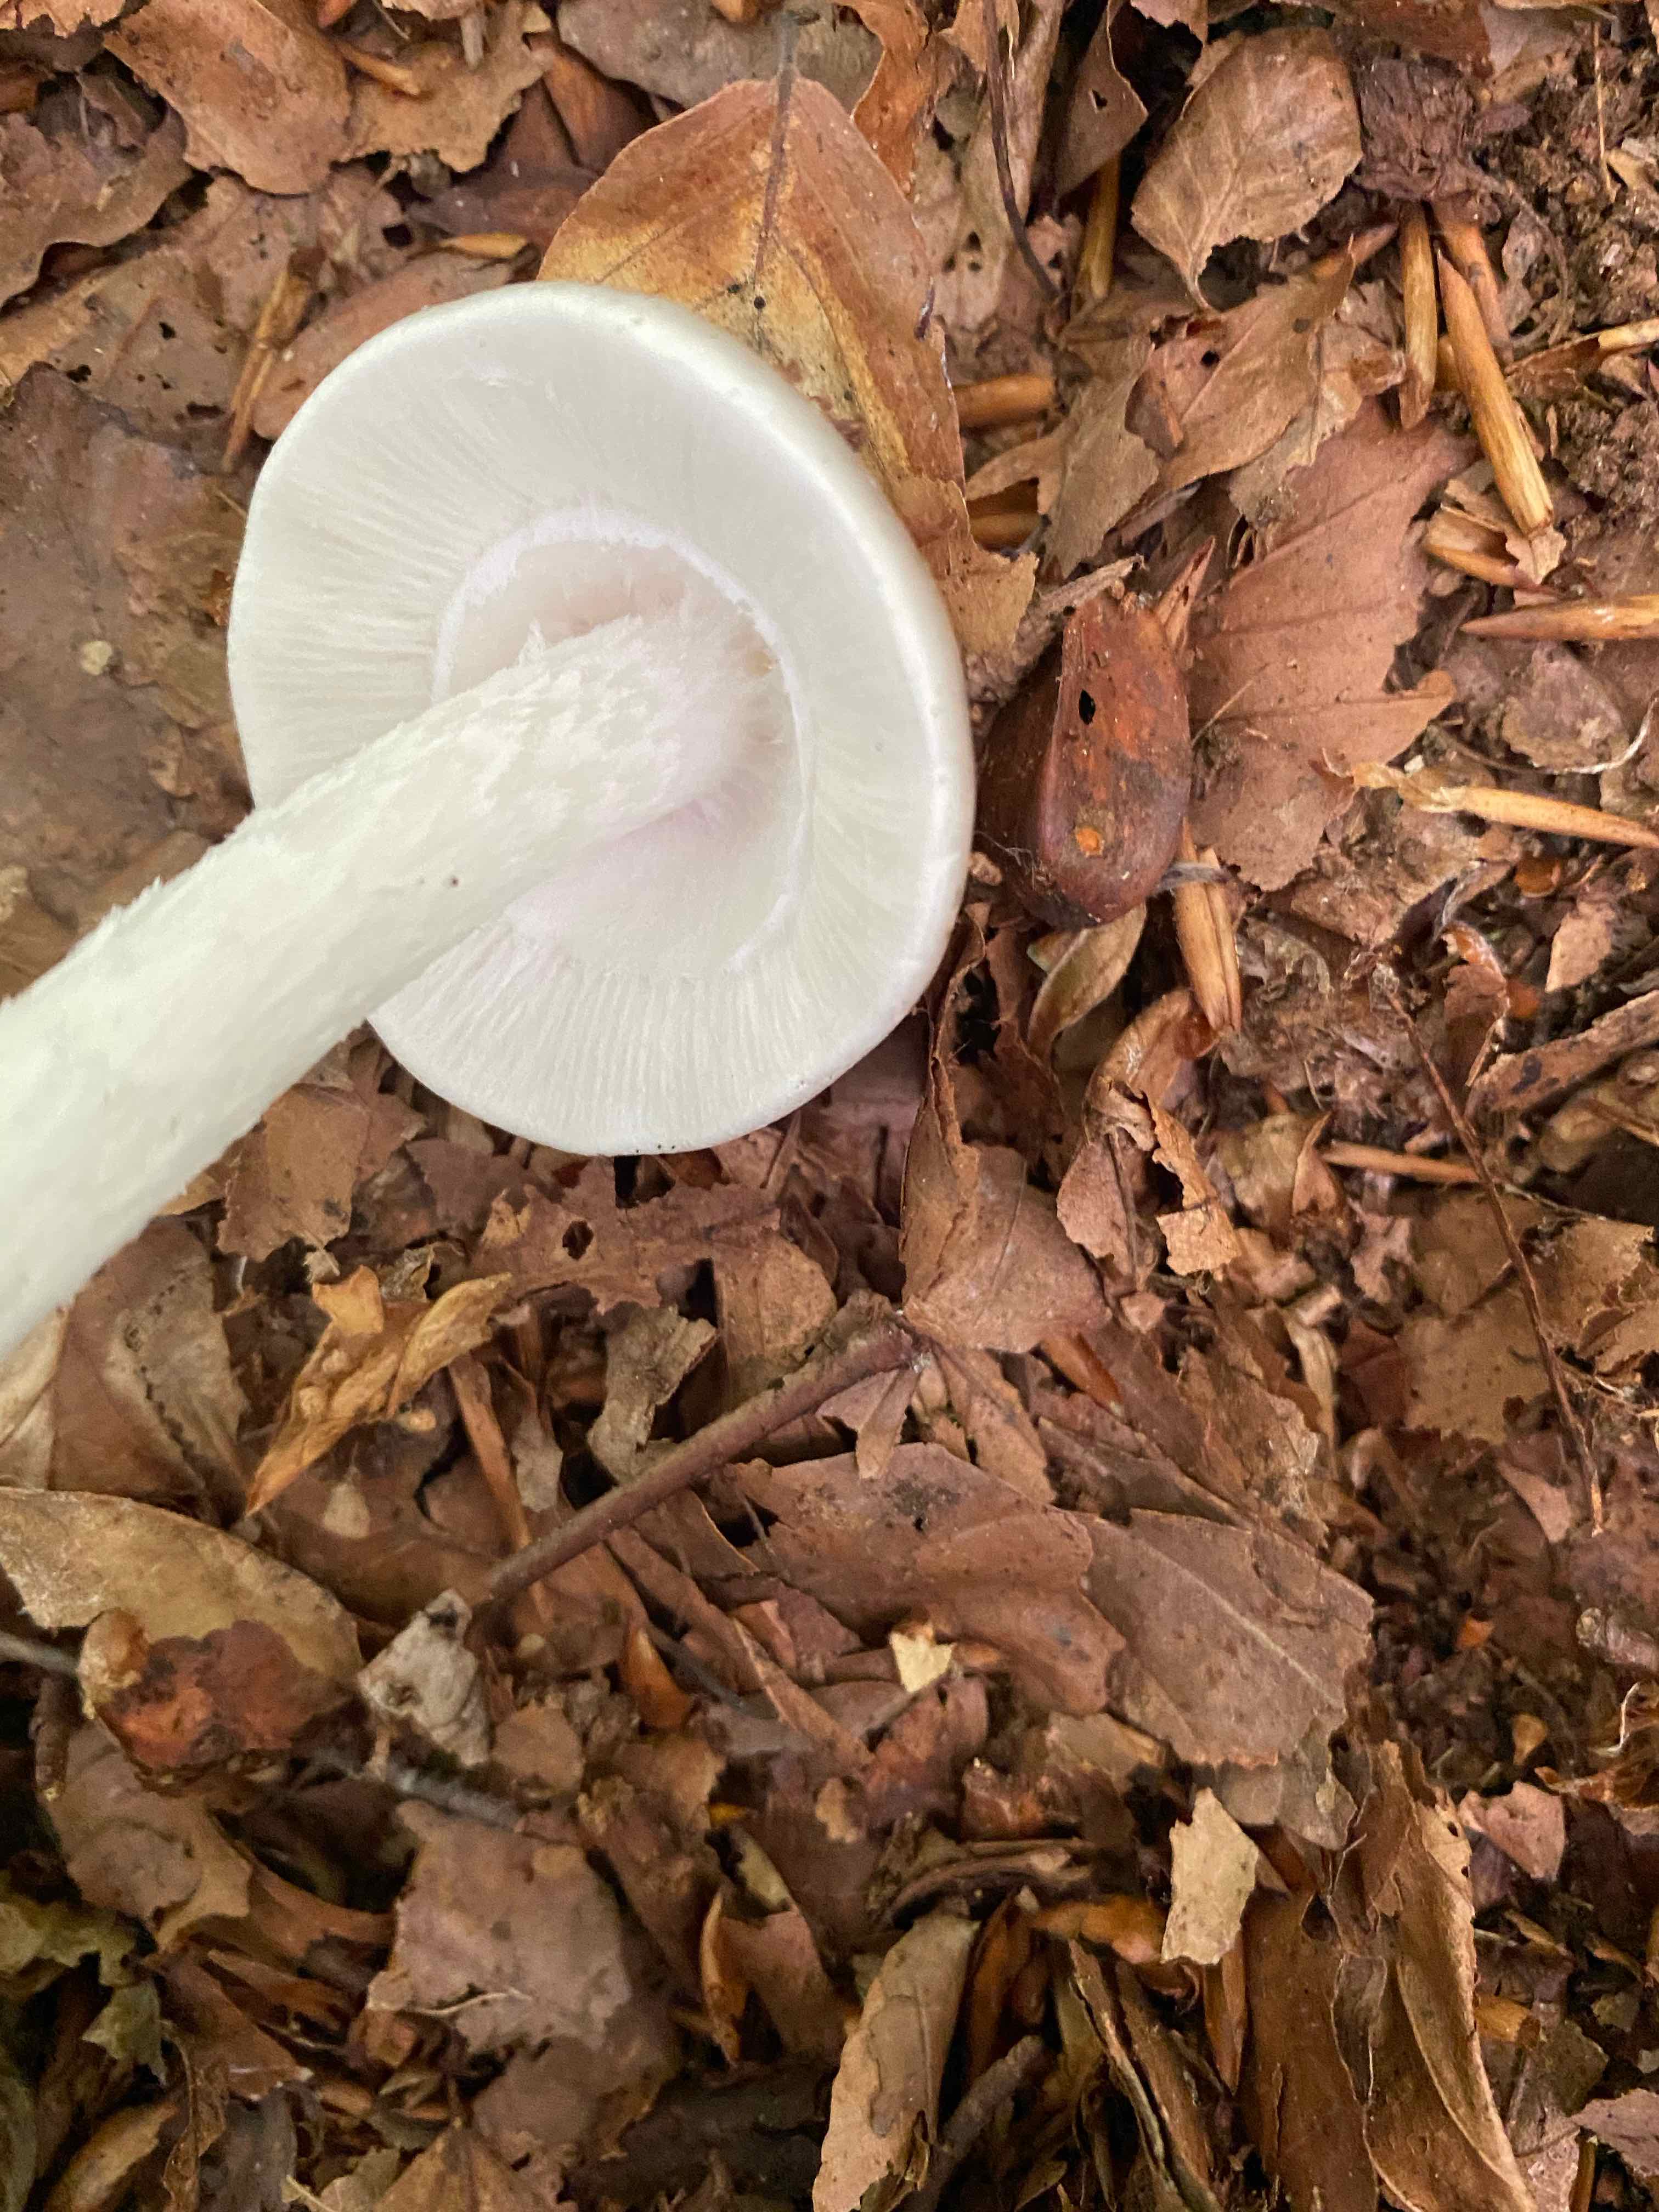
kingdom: Fungi
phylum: Basidiomycota
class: Agaricomycetes
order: Agaricales
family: Amanitaceae
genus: Amanita
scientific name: Amanita virosa
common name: snehvid fluesvamp
